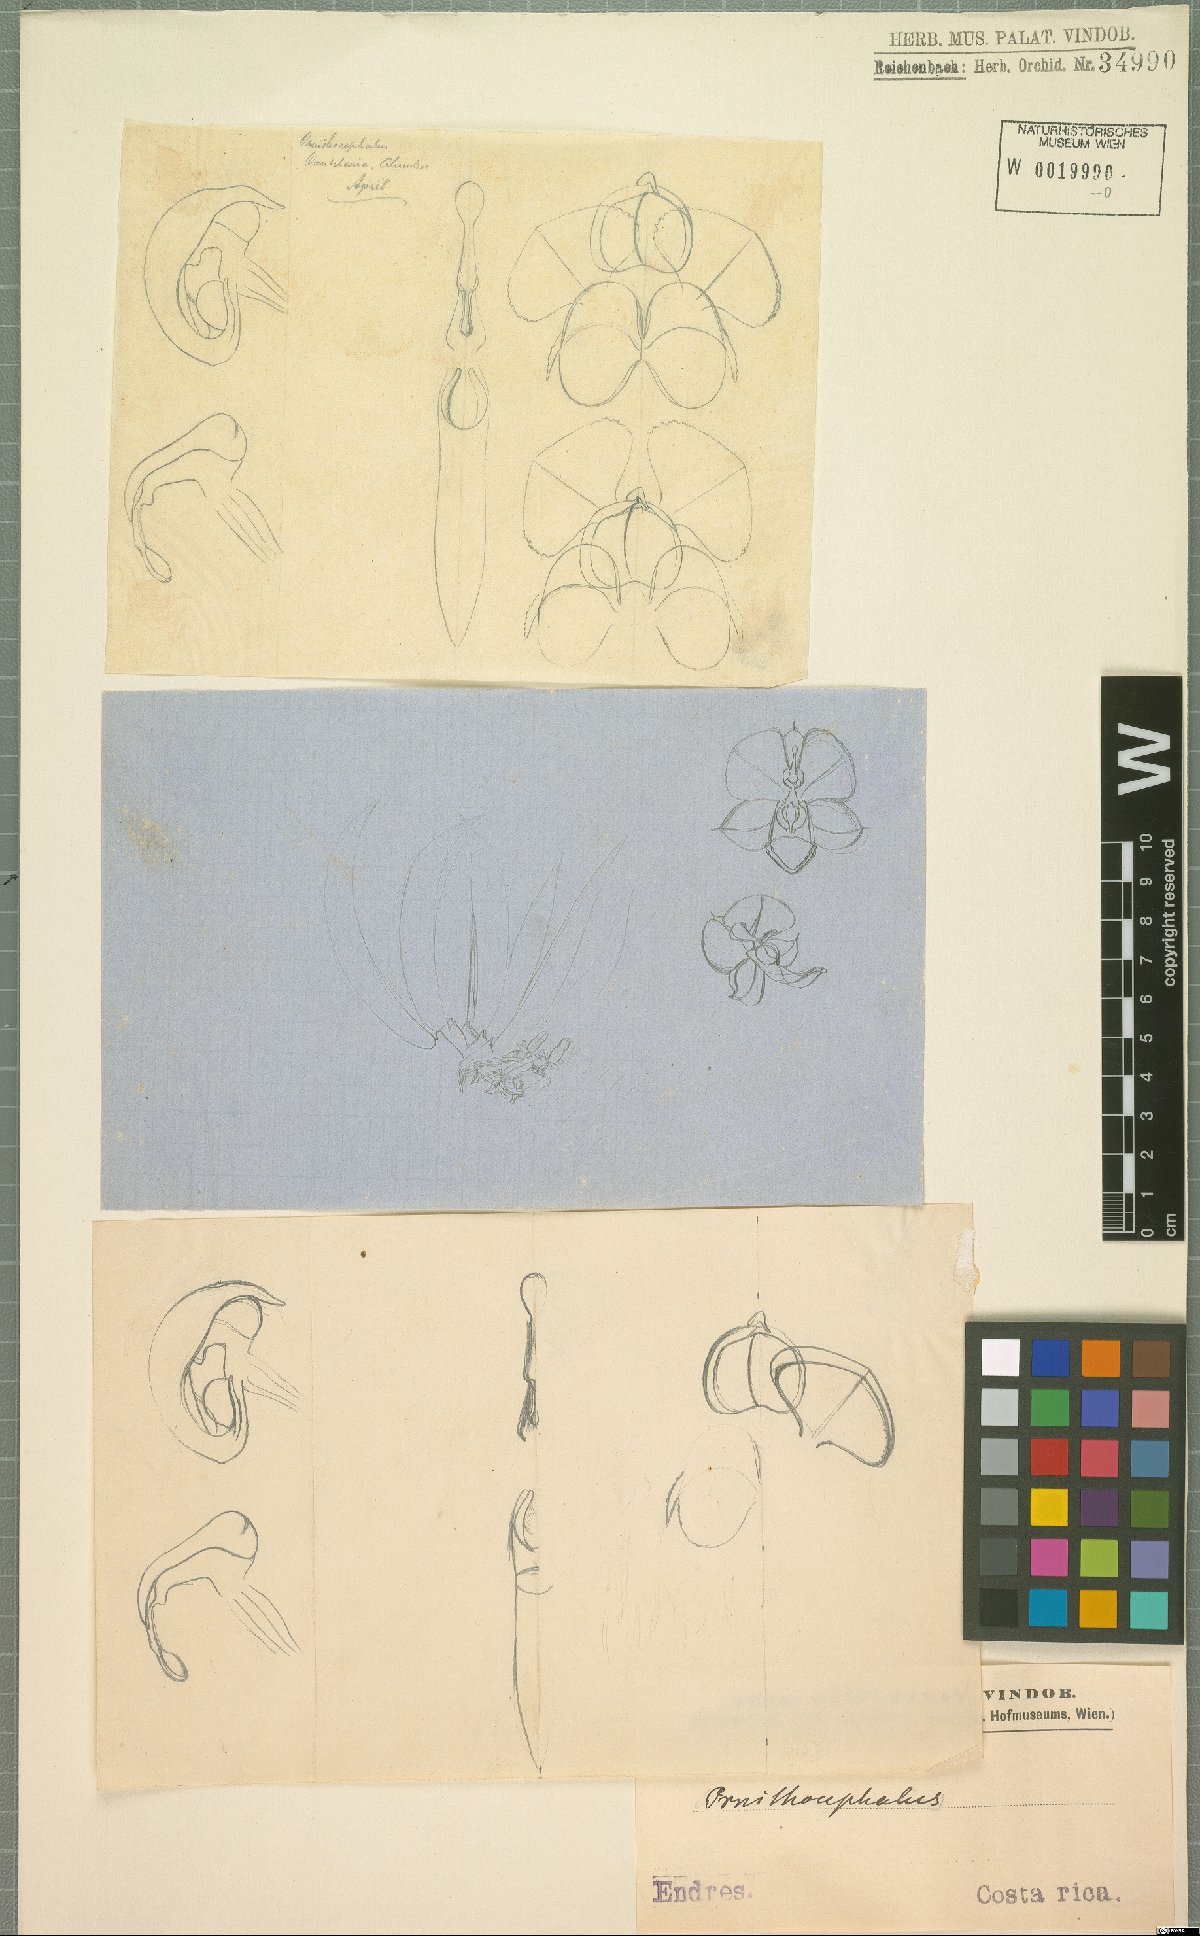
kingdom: Plantae
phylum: Tracheophyta
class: Liliopsida
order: Asparagales
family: Orchidaceae
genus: Ornithocephalus
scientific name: Ornithocephalus
